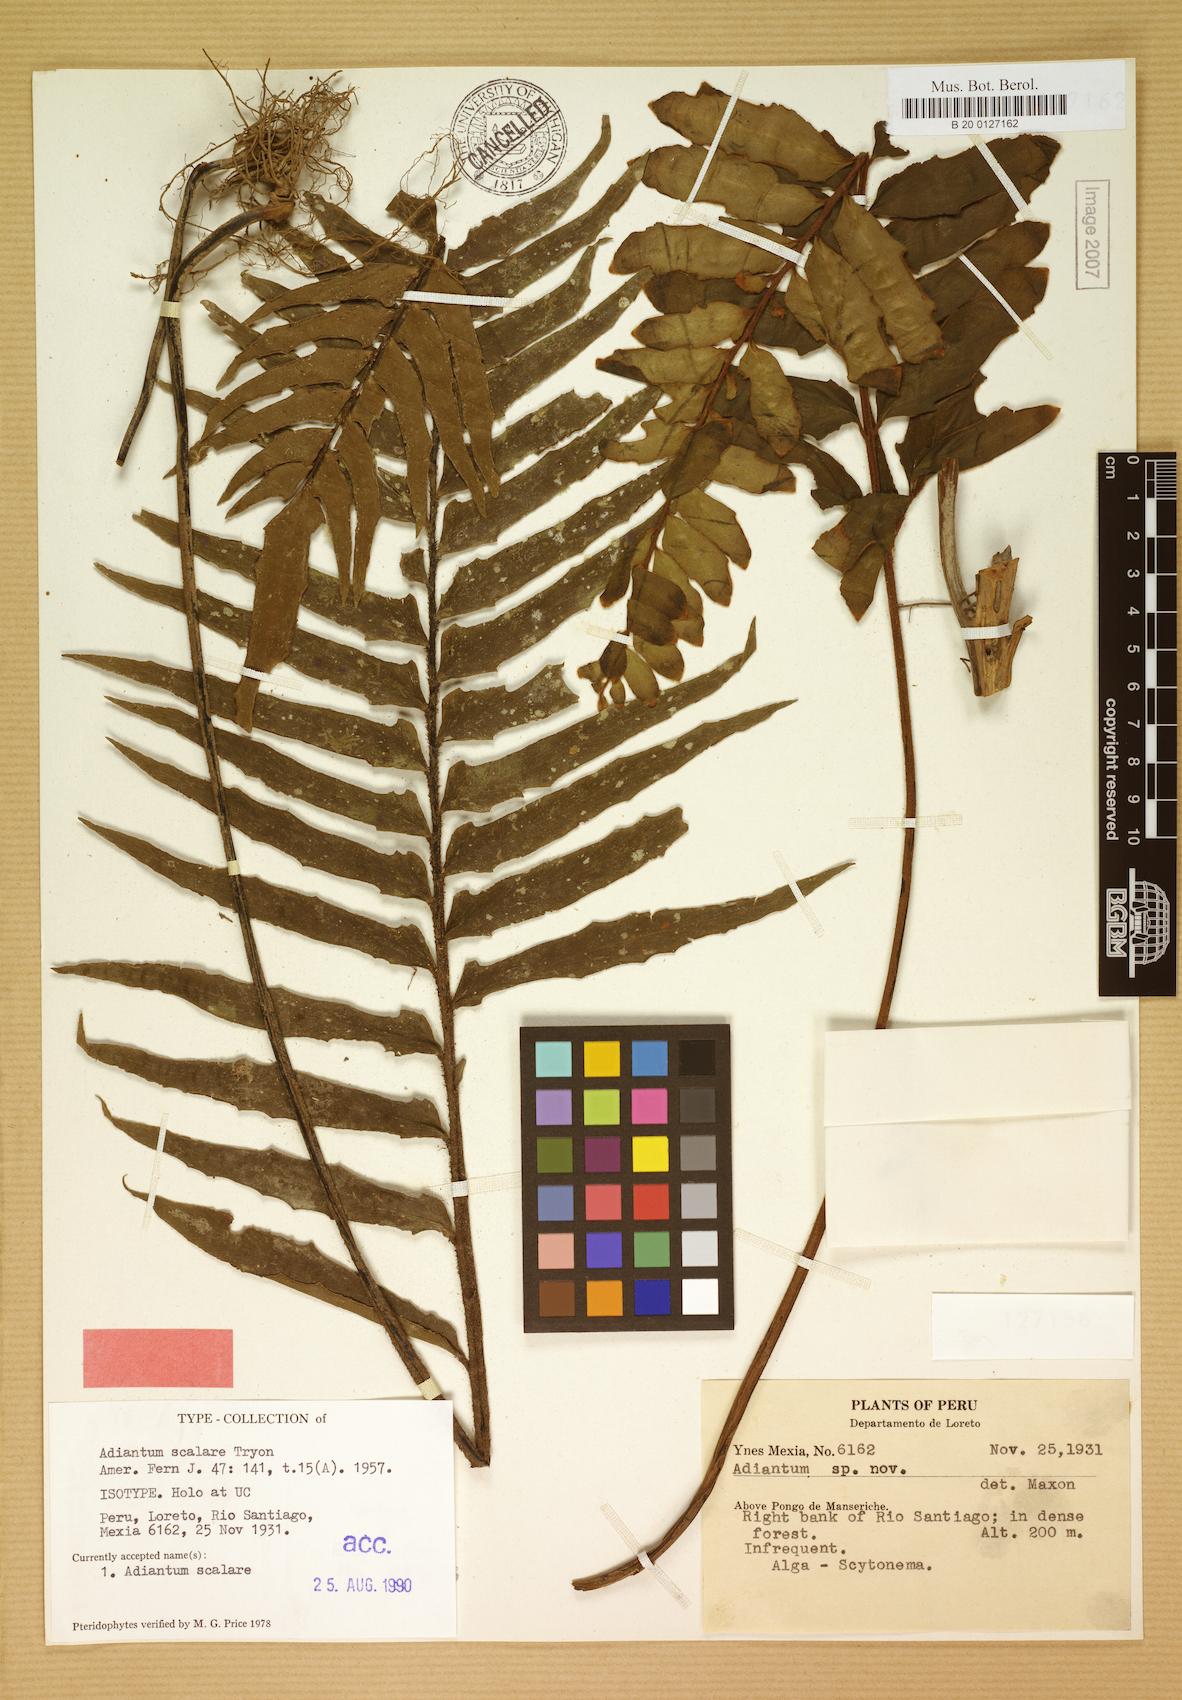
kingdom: Plantae
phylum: Tracheophyta
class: Polypodiopsida
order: Polypodiales
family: Pteridaceae
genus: Adiantum
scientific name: Adiantum scalare
